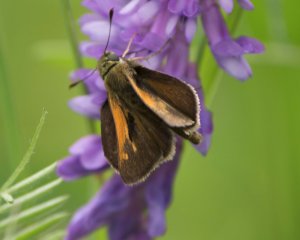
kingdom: Animalia
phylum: Arthropoda
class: Insecta
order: Lepidoptera
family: Hesperiidae
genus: Polites
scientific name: Polites themistocles
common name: Tawny-edged Skipper
